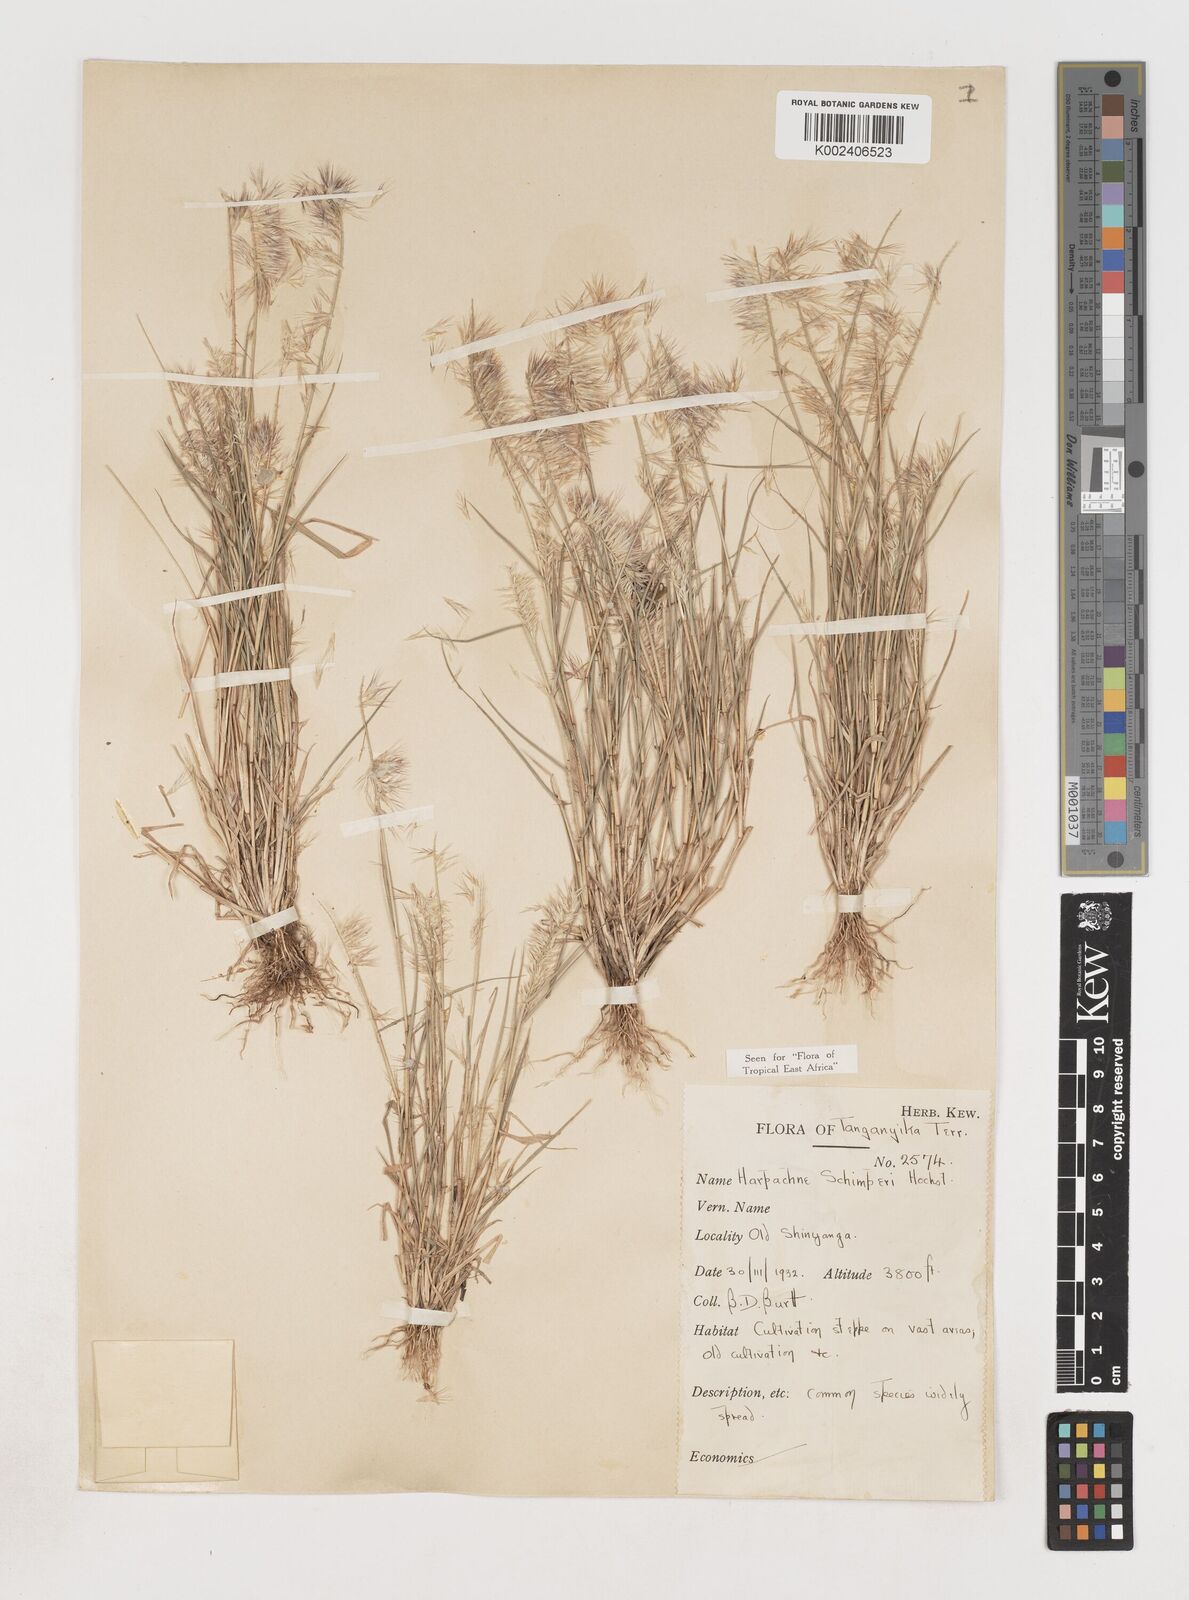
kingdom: Plantae
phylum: Tracheophyta
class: Liliopsida
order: Poales
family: Poaceae
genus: Harpachne
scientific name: Harpachne schimperi
